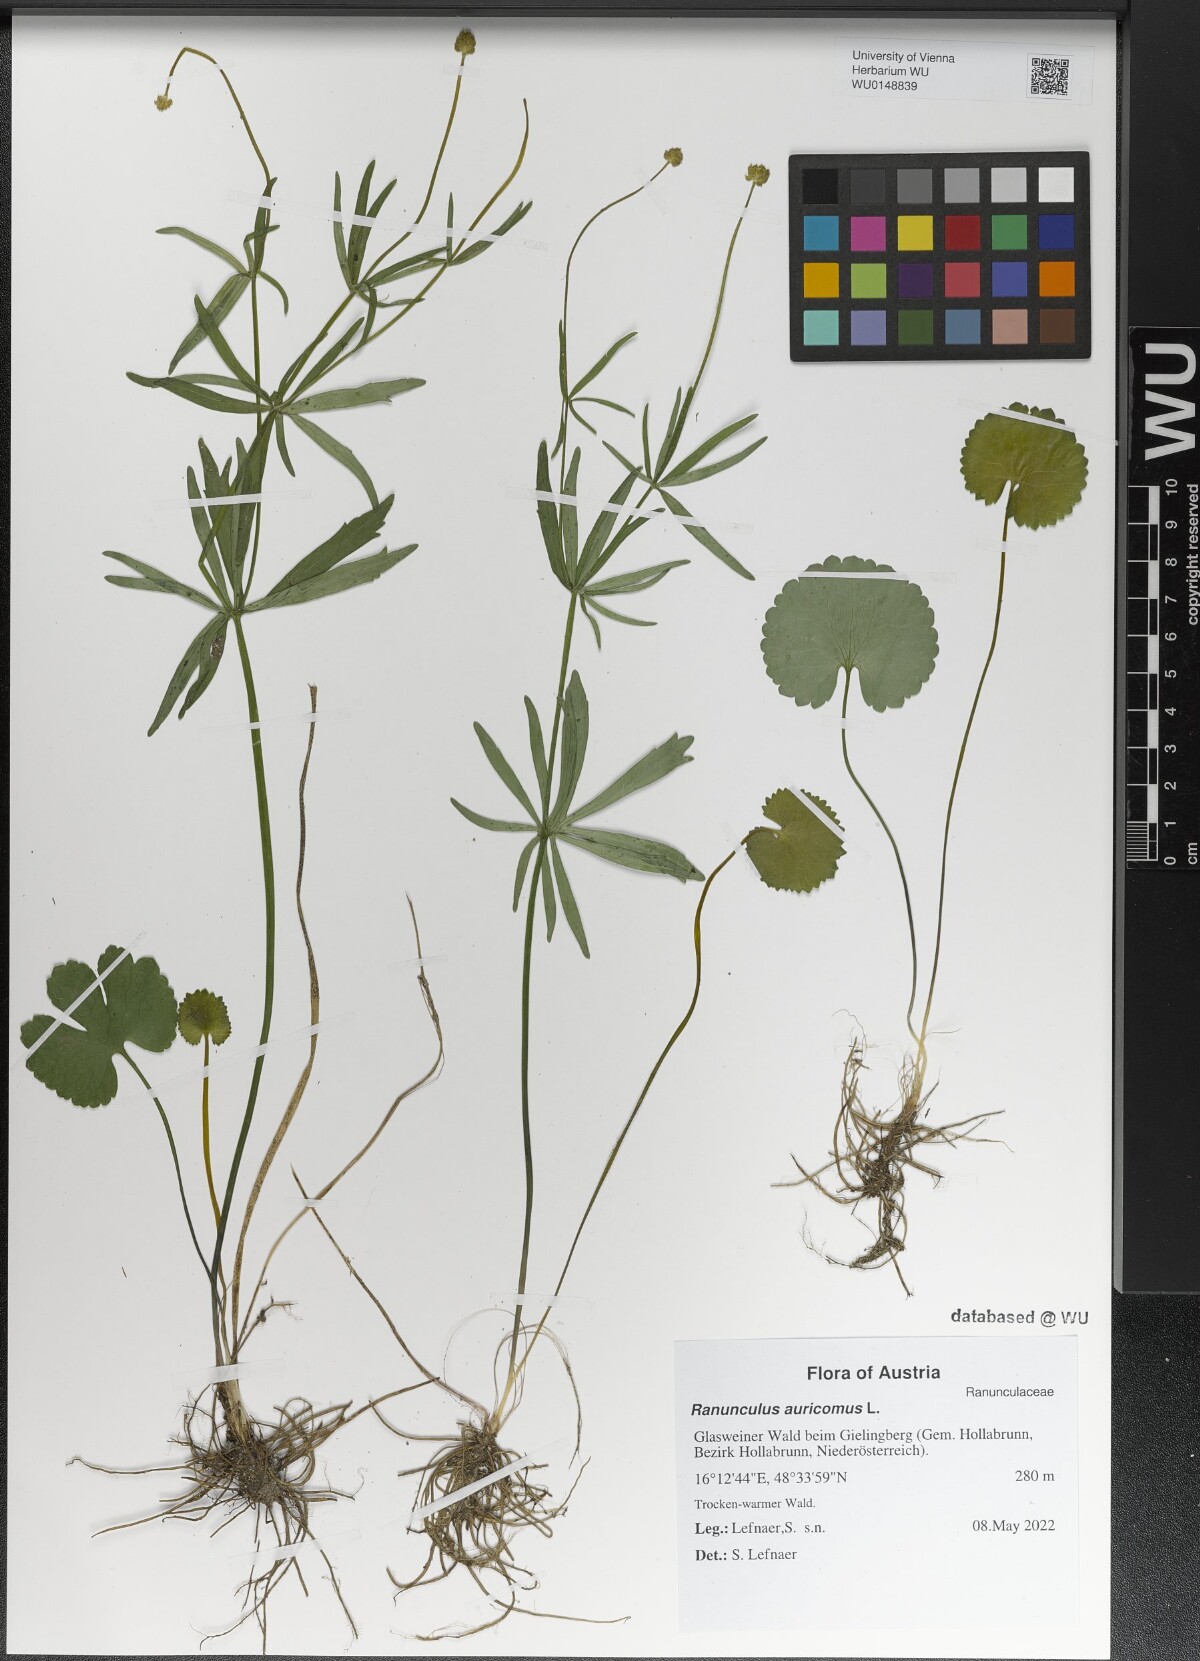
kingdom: Plantae
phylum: Tracheophyta
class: Magnoliopsida
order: Ranunculales
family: Ranunculaceae
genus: Ranunculus
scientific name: Ranunculus auricomus
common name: Goldilocks buttercup
